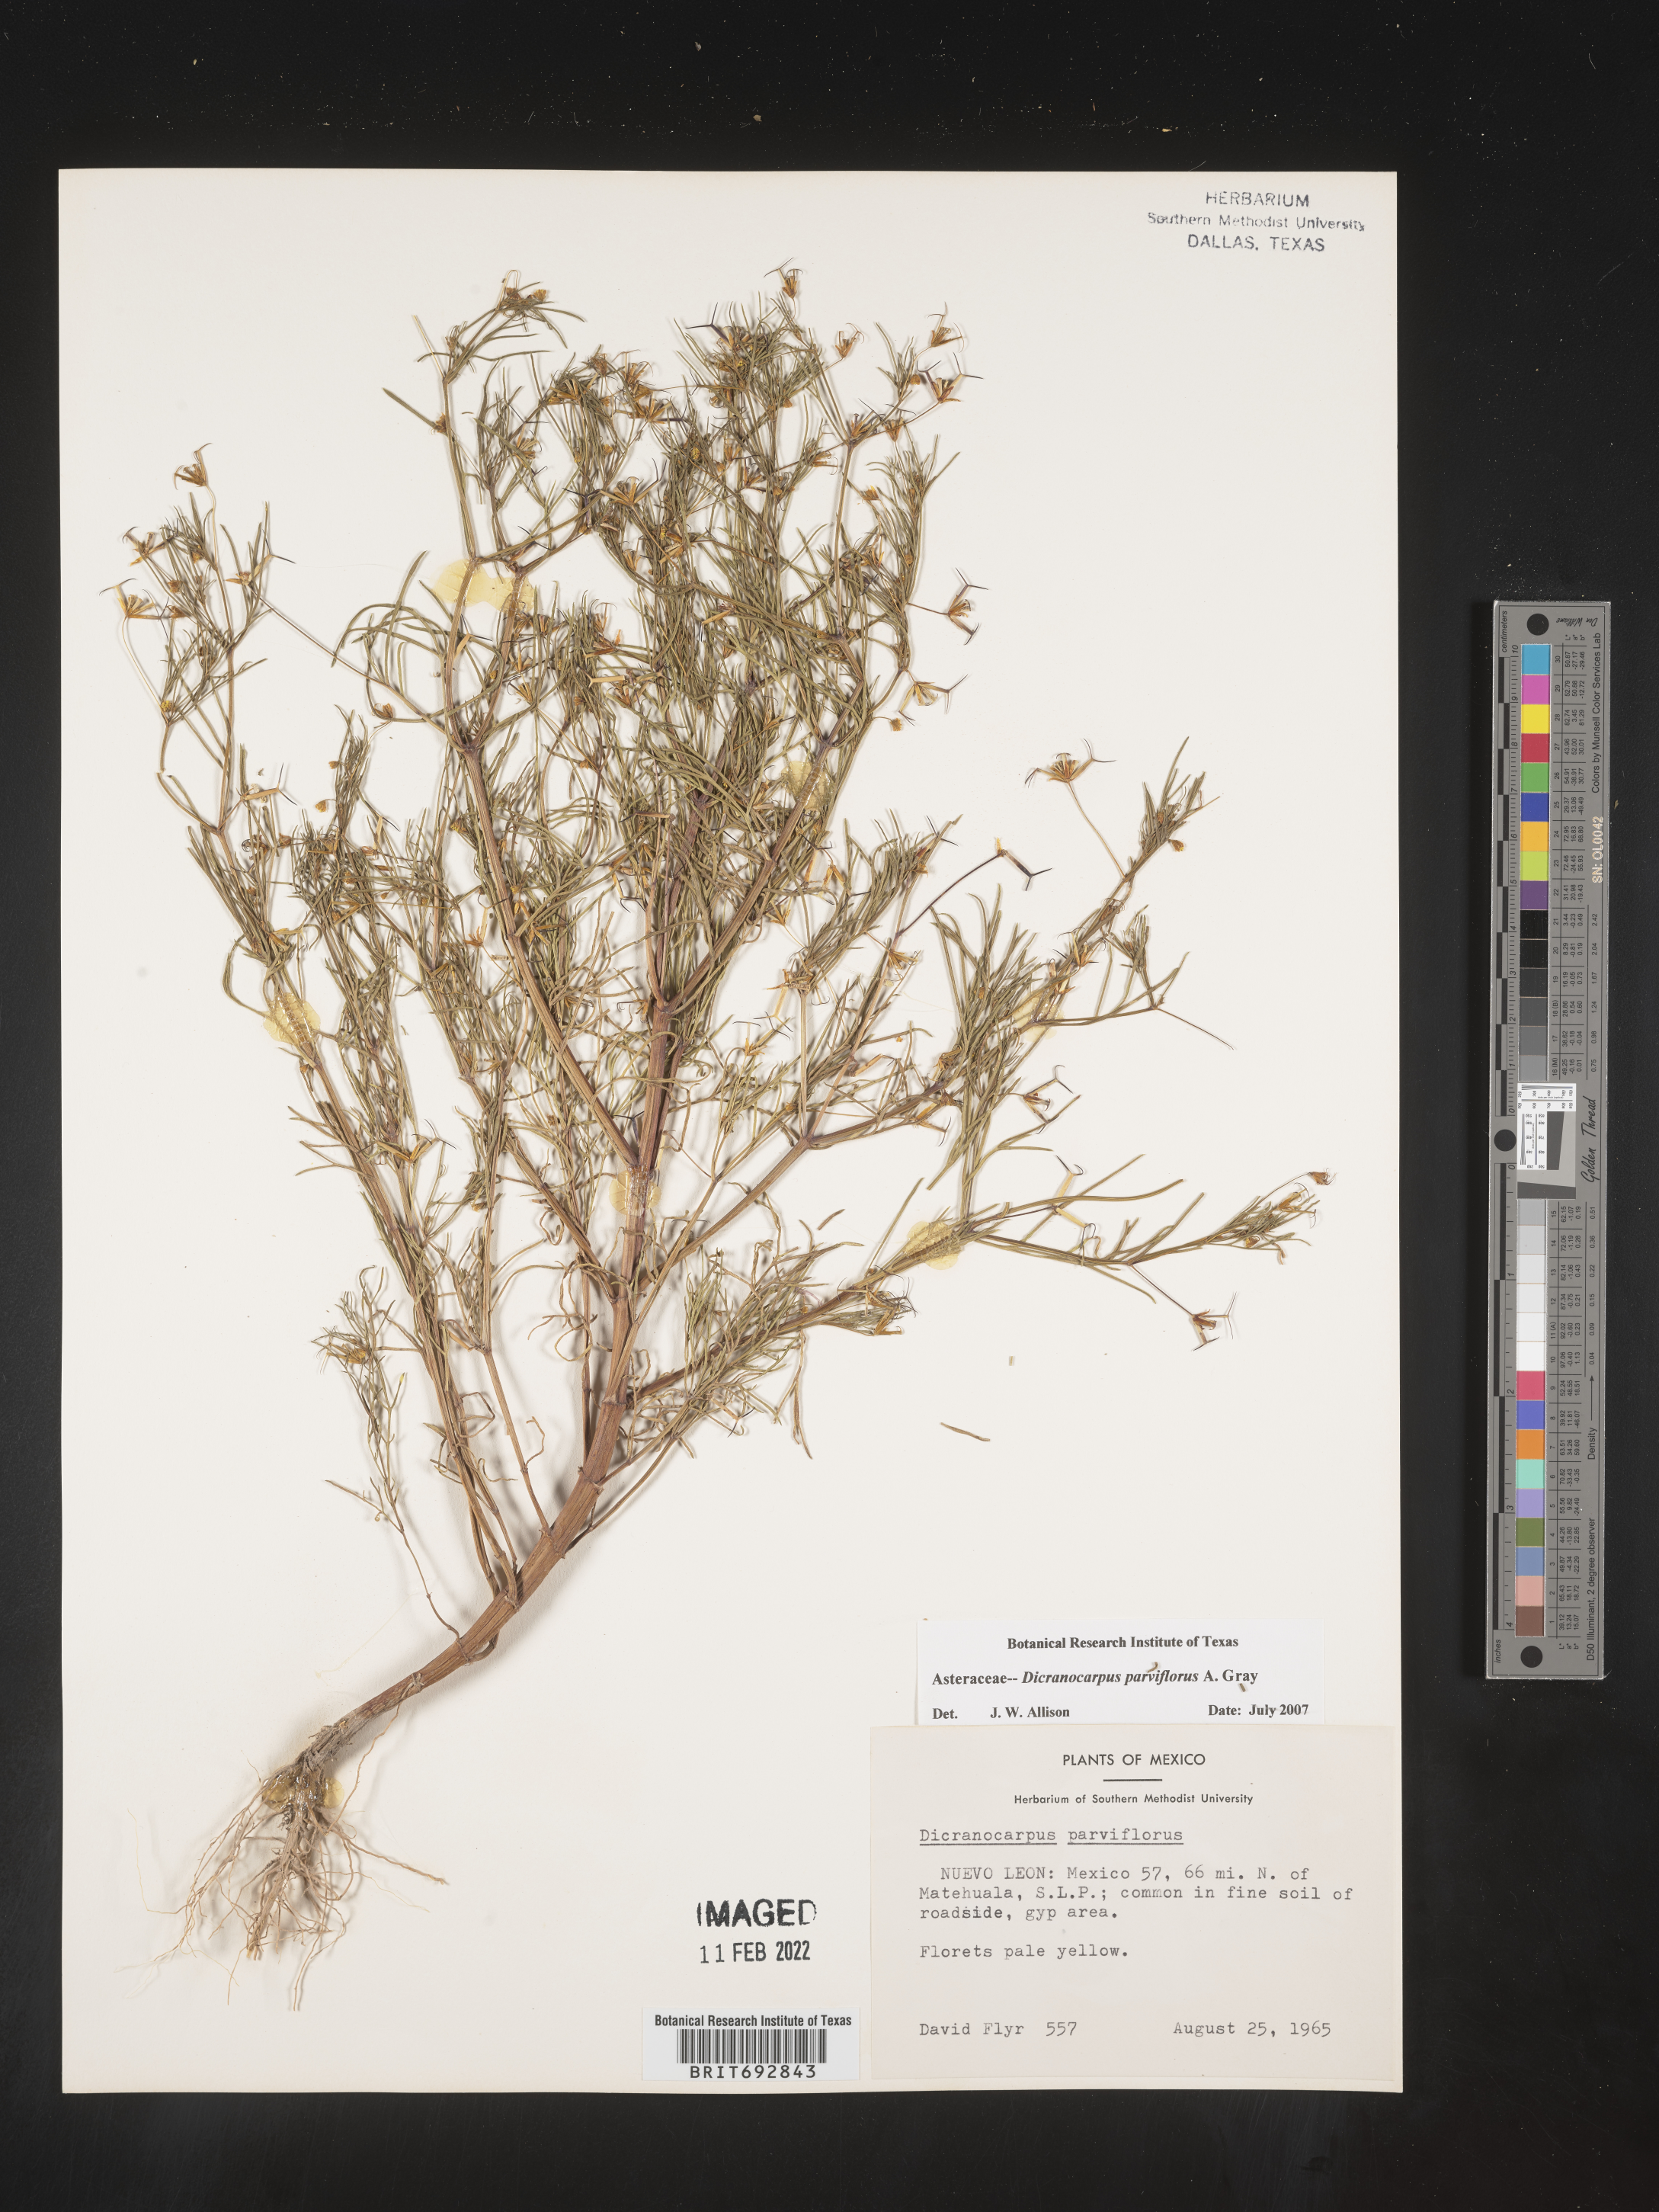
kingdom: Plantae
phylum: Tracheophyta
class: Magnoliopsida
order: Asterales
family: Asteraceae
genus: Dicranocarpus
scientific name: Dicranocarpus
